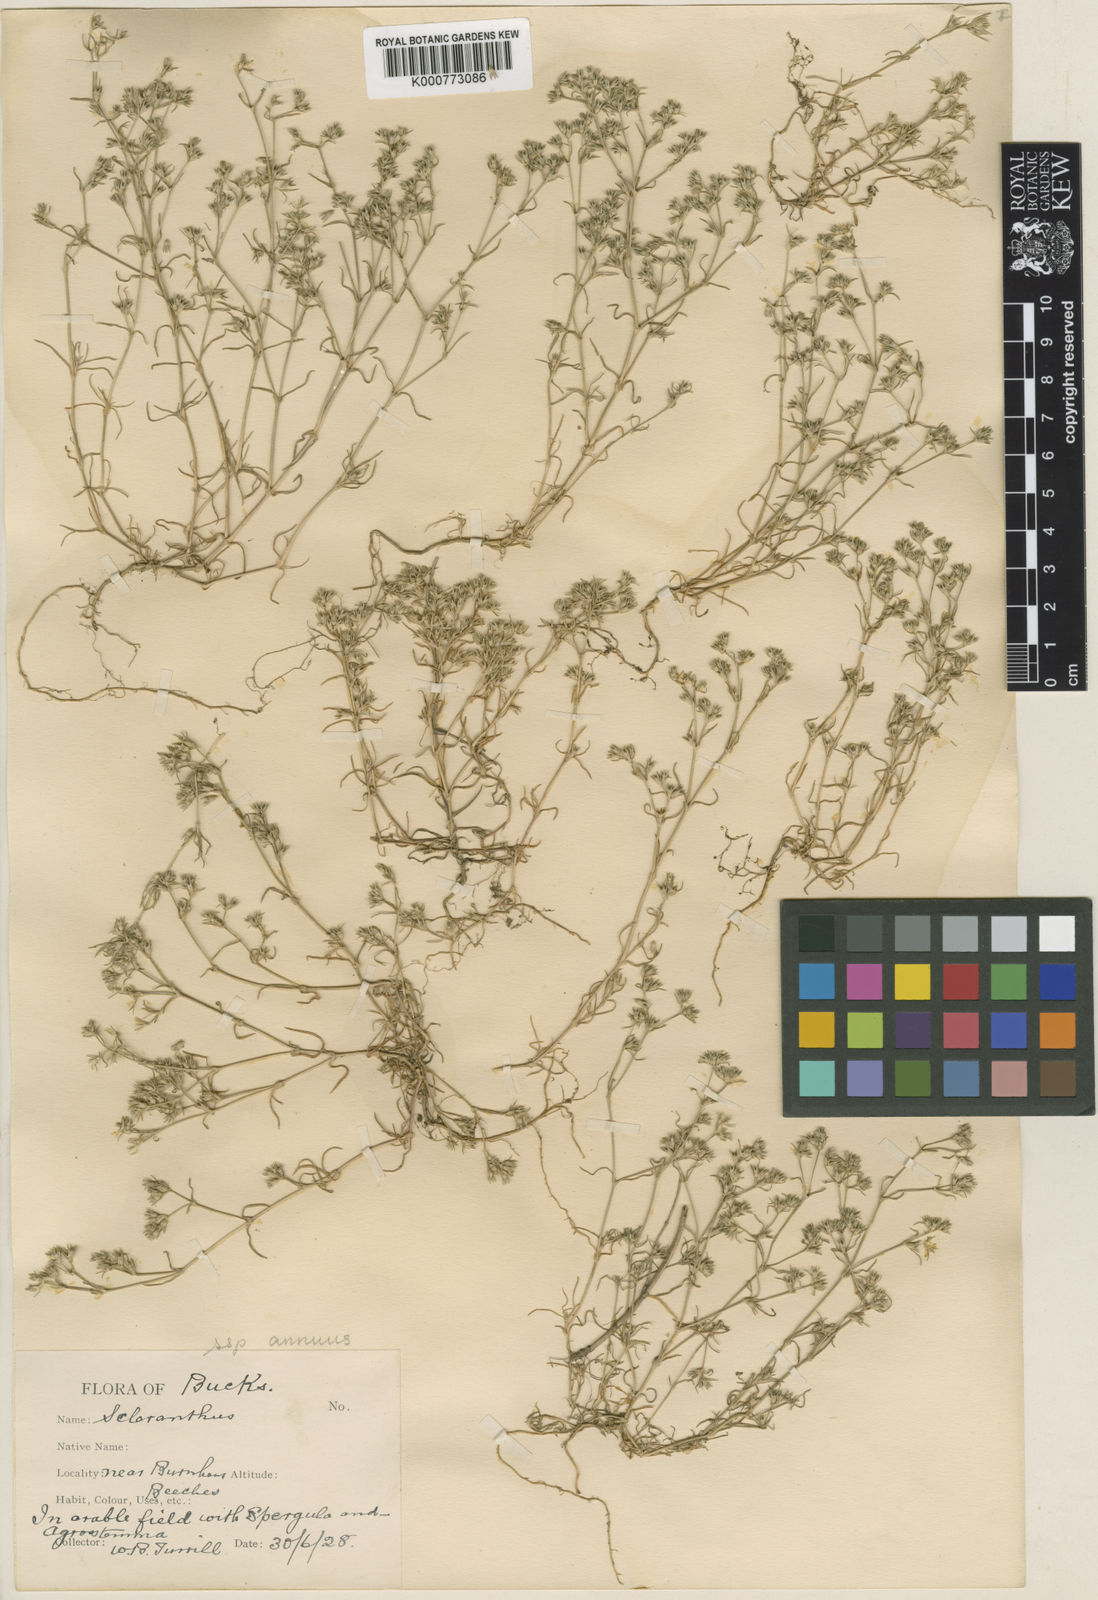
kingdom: Plantae
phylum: Tracheophyta
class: Magnoliopsida
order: Caryophyllales
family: Caryophyllaceae
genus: Scleranthus
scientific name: Scleranthus annuus
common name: Annual knawel
